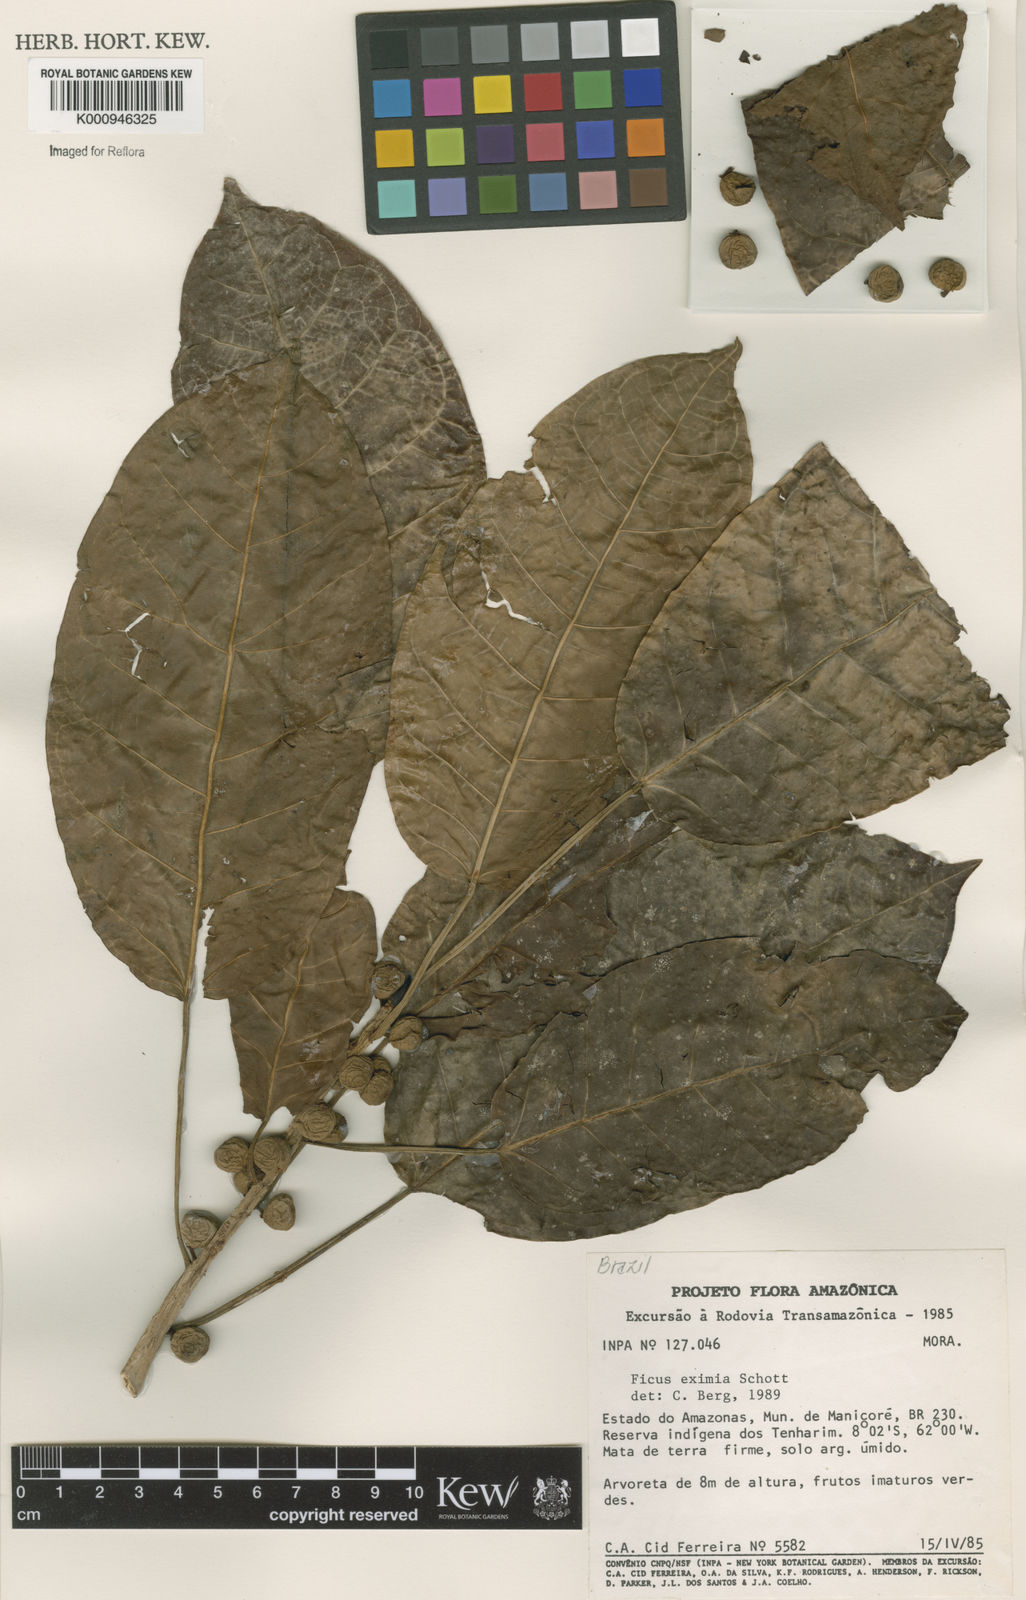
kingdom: Plantae
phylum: Tracheophyta
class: Magnoliopsida
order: Rosales
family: Moraceae
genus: Ficus
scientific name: Ficus eximia
